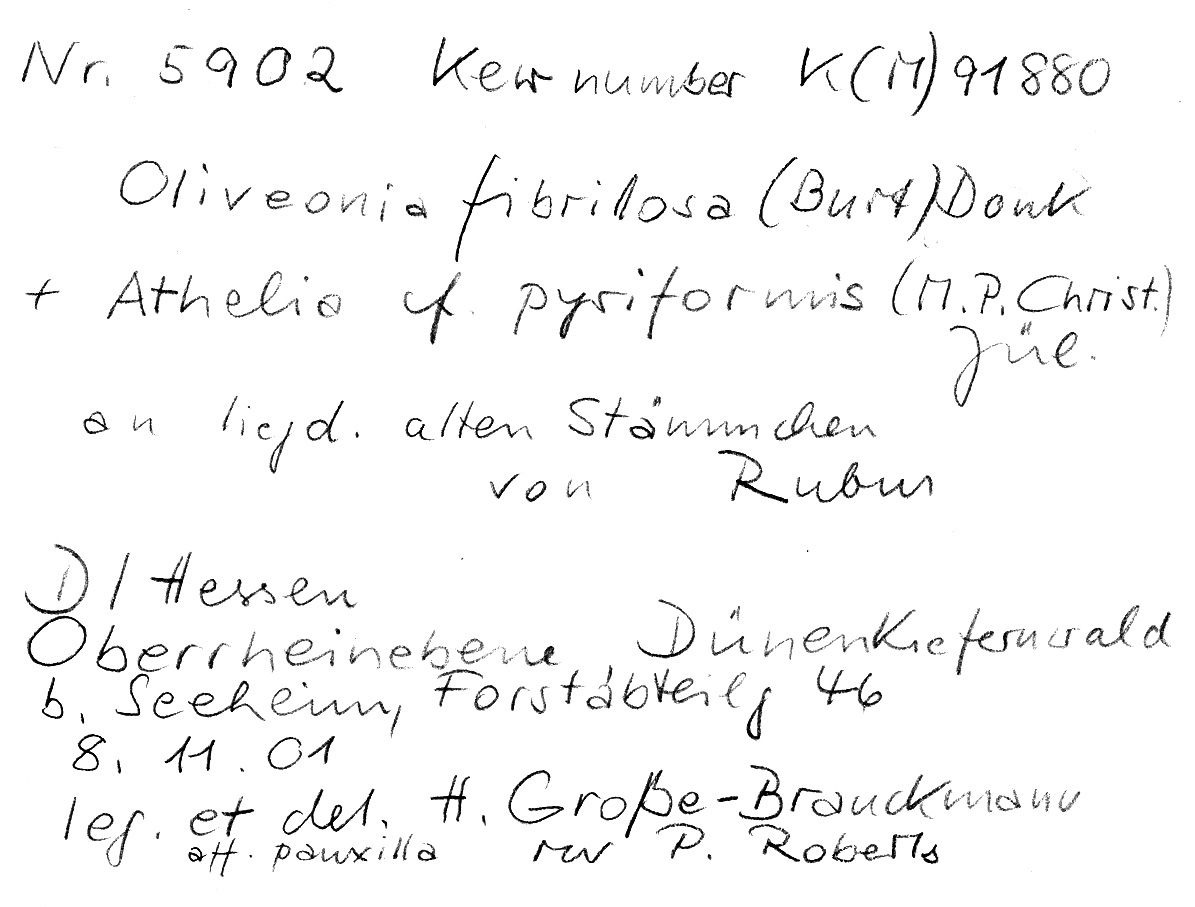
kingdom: Plantae
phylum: Tracheophyta
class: Magnoliopsida
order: Rosales
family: Rosaceae
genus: Rubus
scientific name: Rubus
